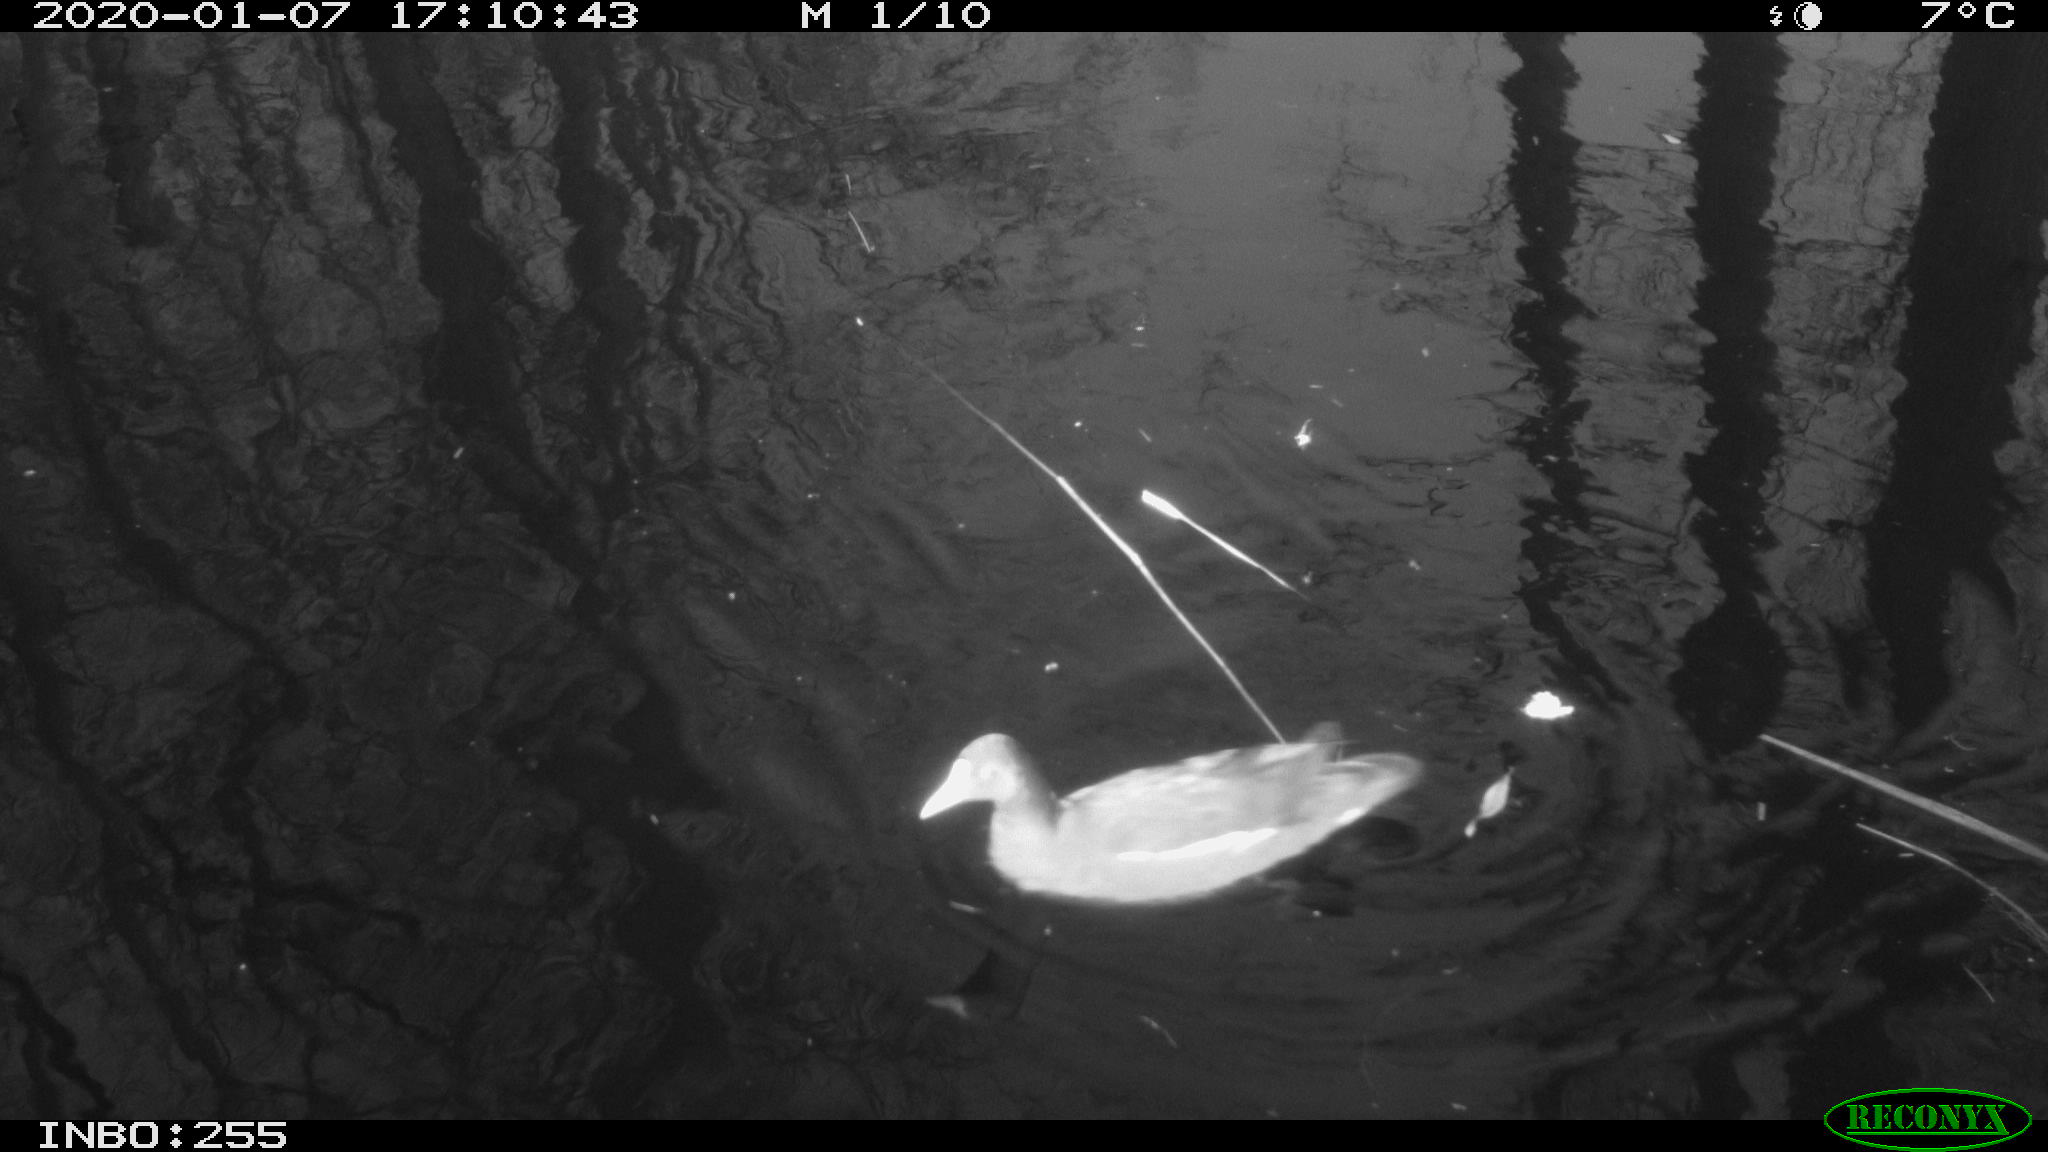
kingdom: Animalia
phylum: Chordata
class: Aves
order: Gruiformes
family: Rallidae
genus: Gallinula
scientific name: Gallinula chloropus
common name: Common moorhen
